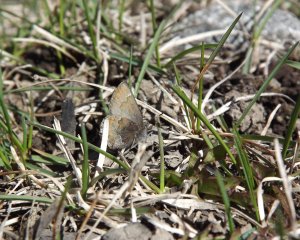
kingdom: Animalia
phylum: Arthropoda
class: Insecta
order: Lepidoptera
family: Lycaenidae
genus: Callophrys
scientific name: Callophrys mossii
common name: Moss' Elfin
